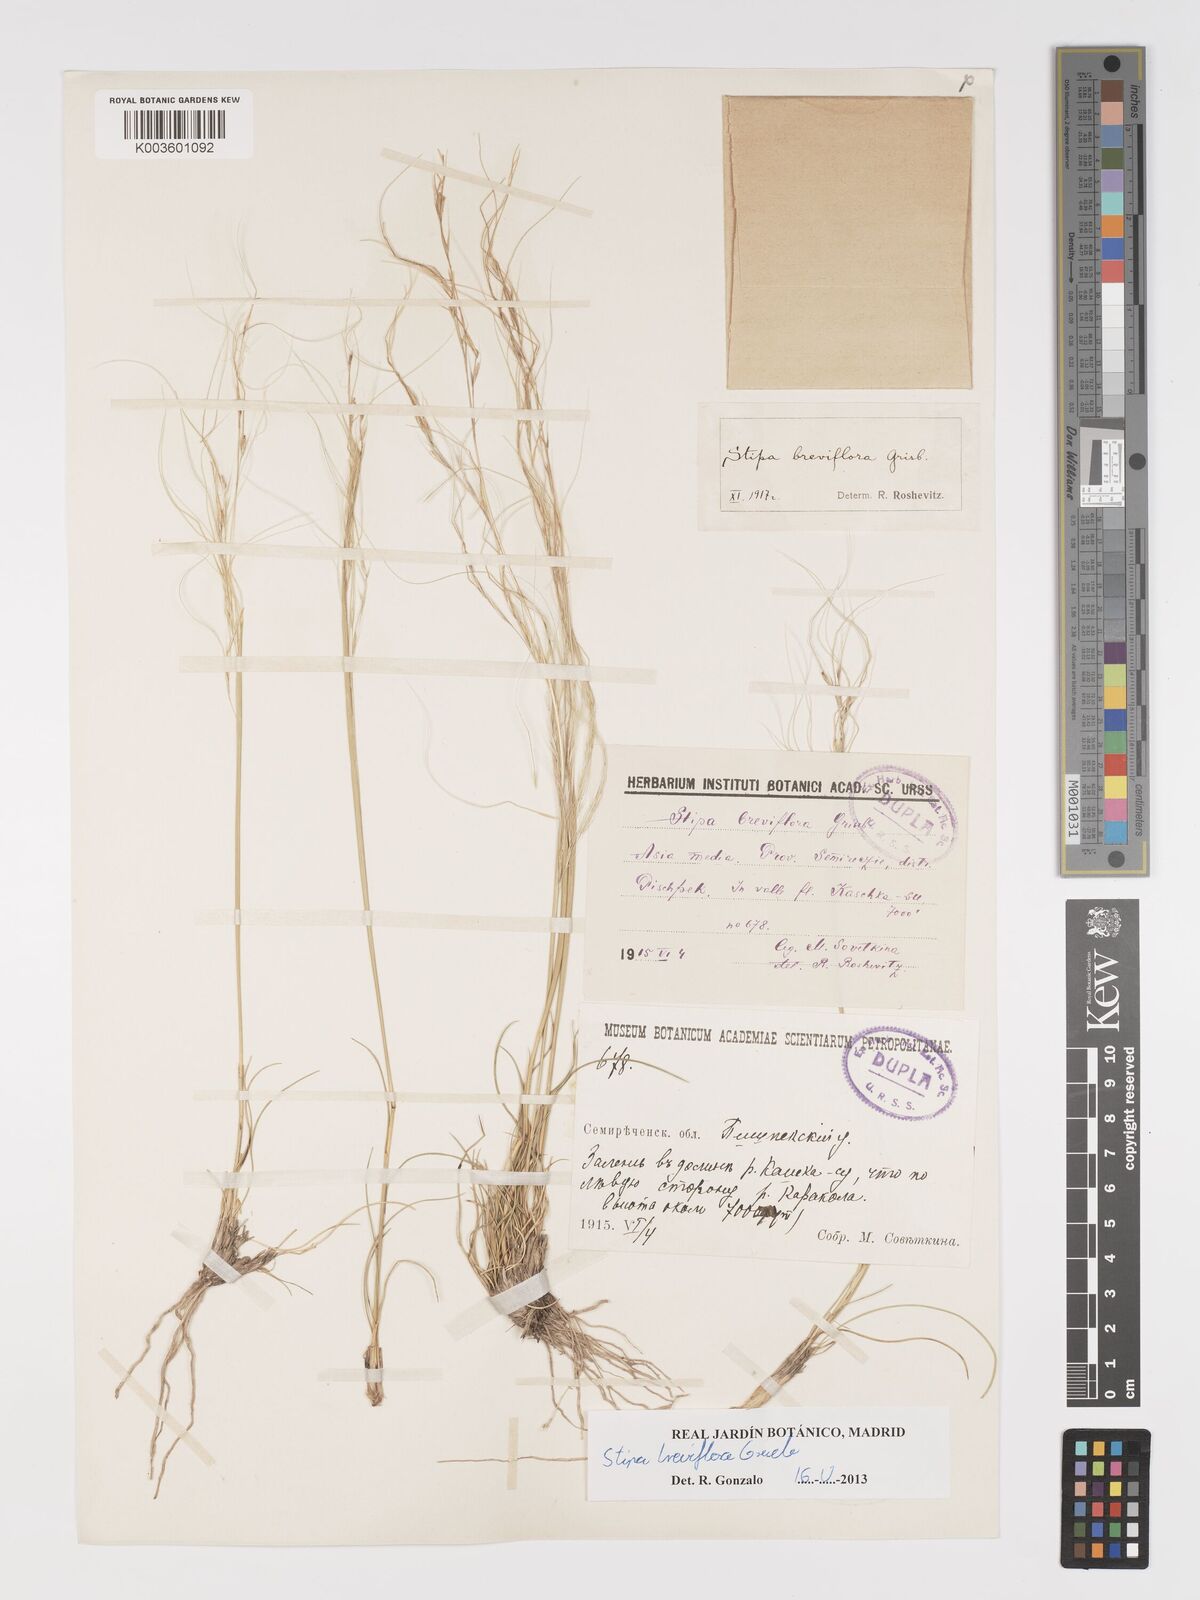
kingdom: Plantae
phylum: Tracheophyta
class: Liliopsida
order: Poales
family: Poaceae
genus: Stipa
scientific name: Stipa breviflora
